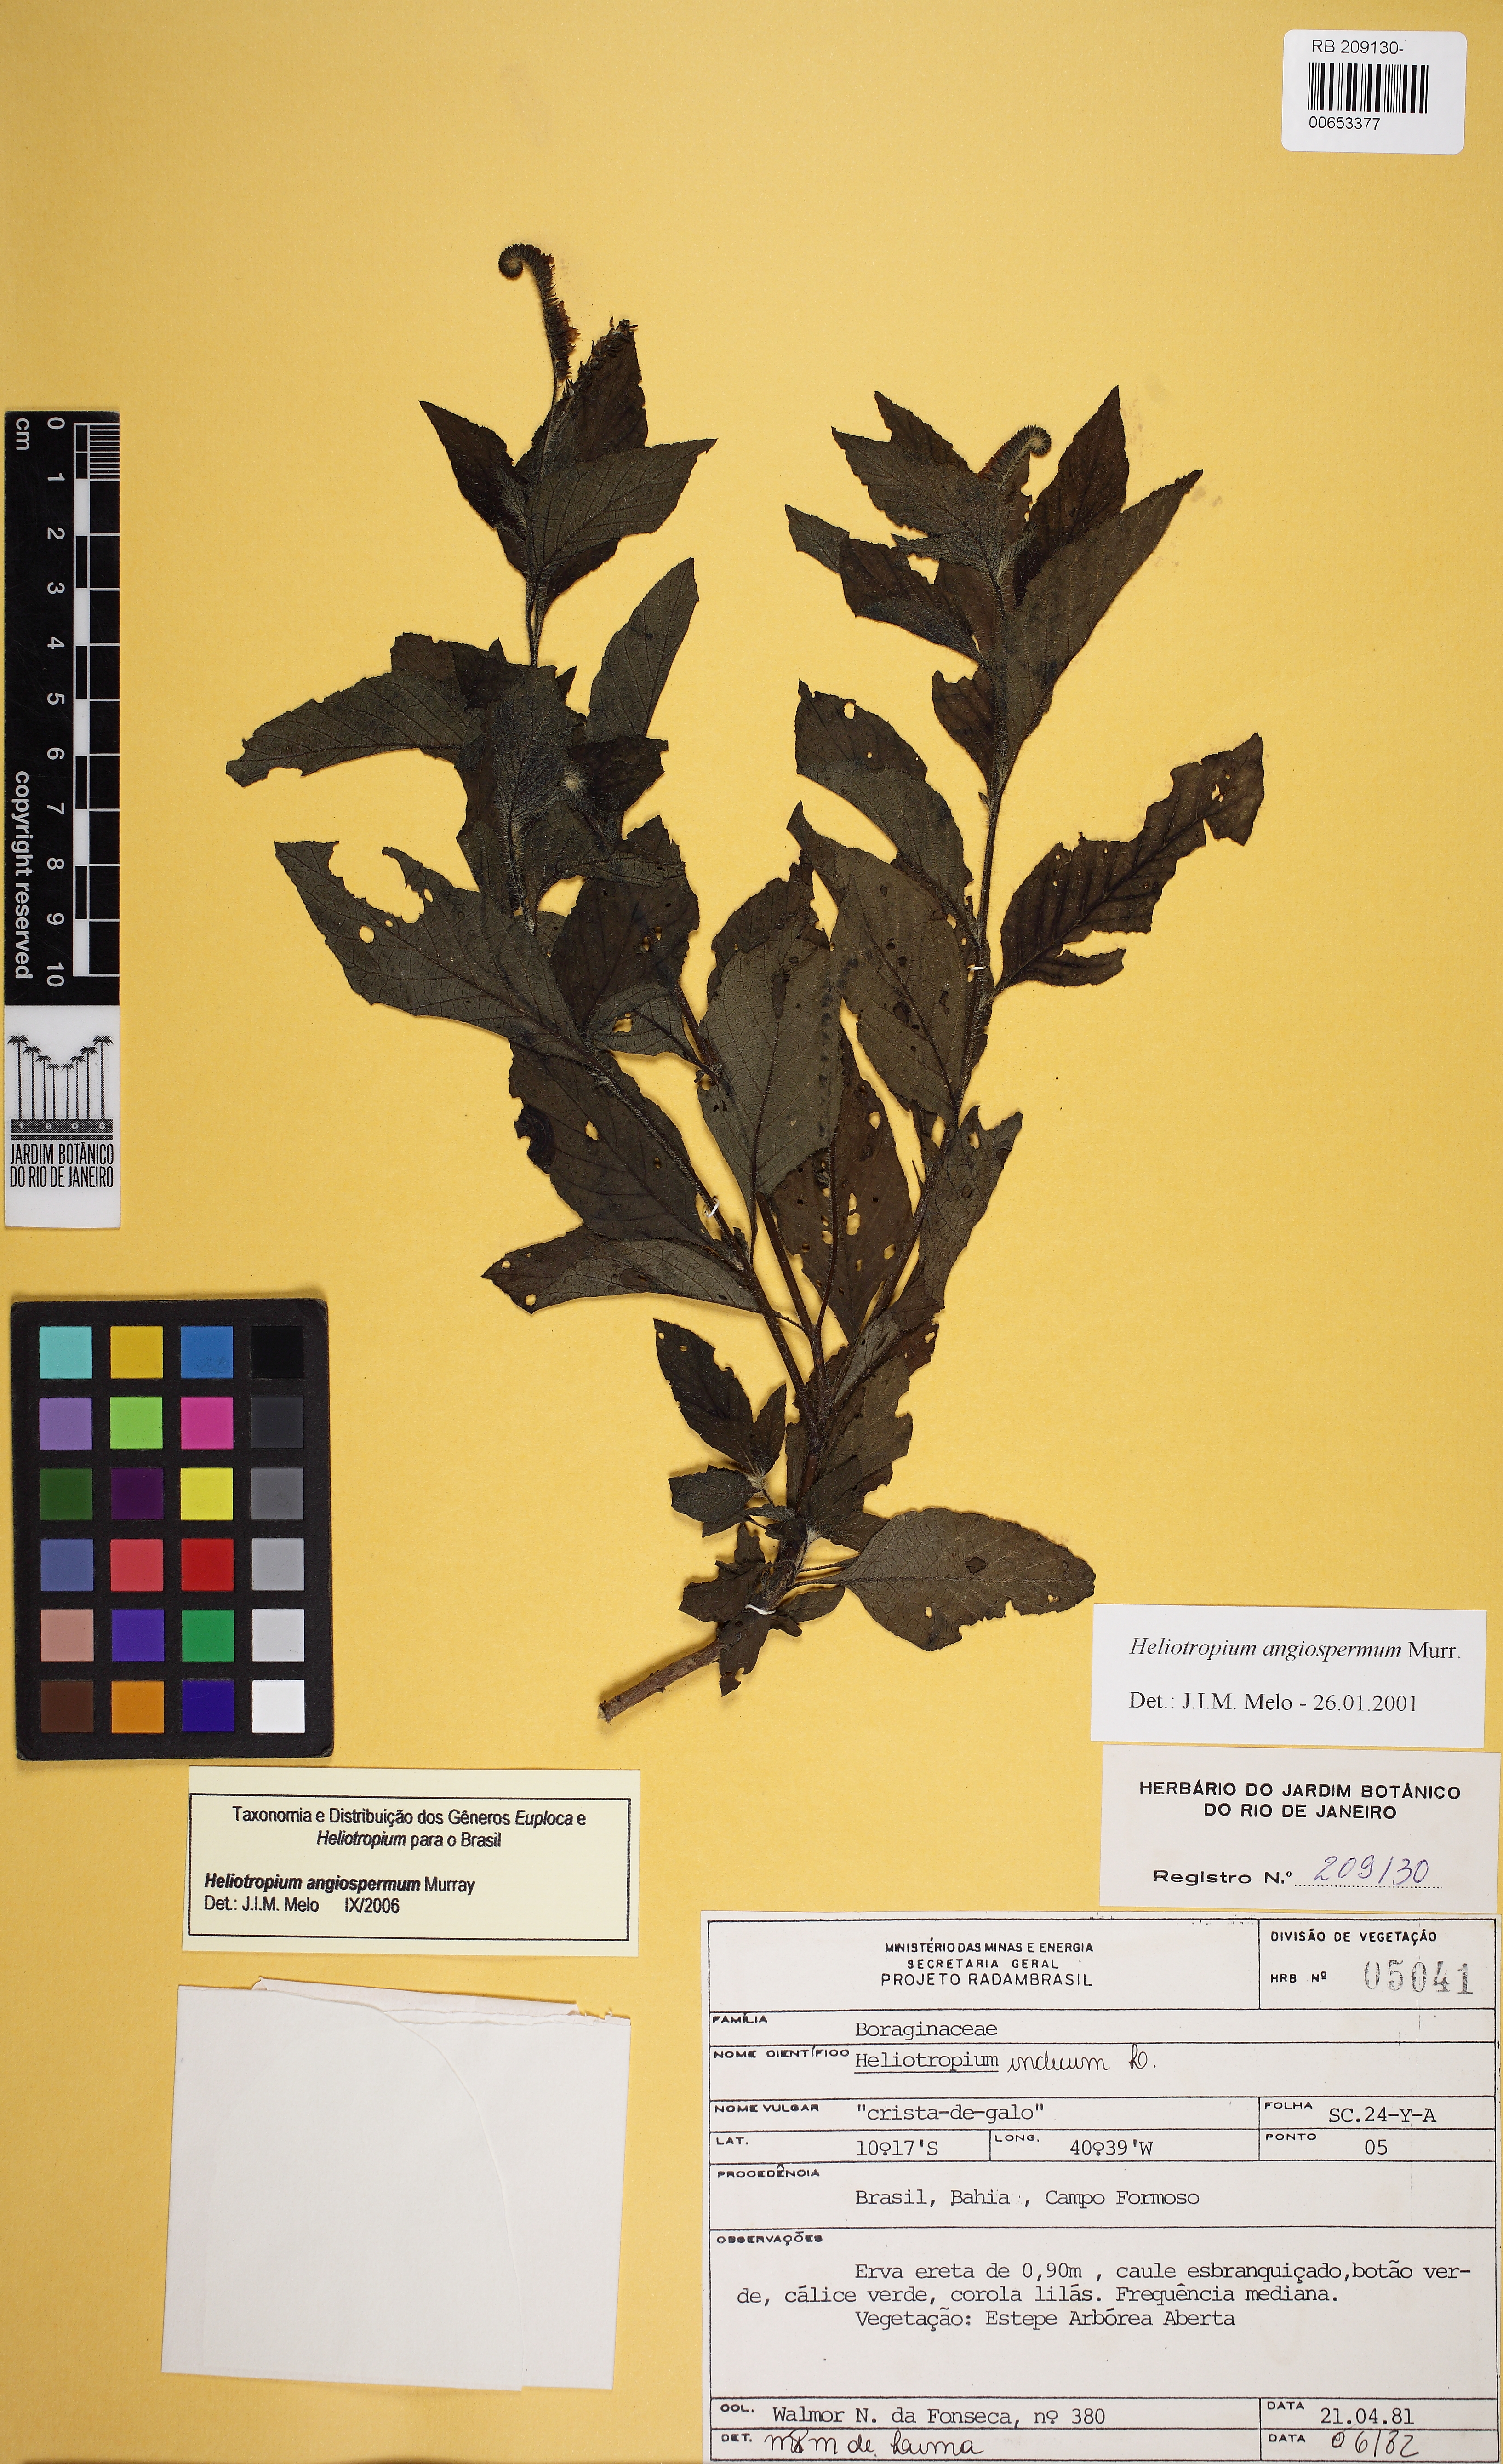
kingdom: Plantae
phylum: Tracheophyta
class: Magnoliopsida
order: Boraginales
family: Heliotropiaceae
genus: Heliotropium
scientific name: Heliotropium angiospermum
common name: Eye bright
